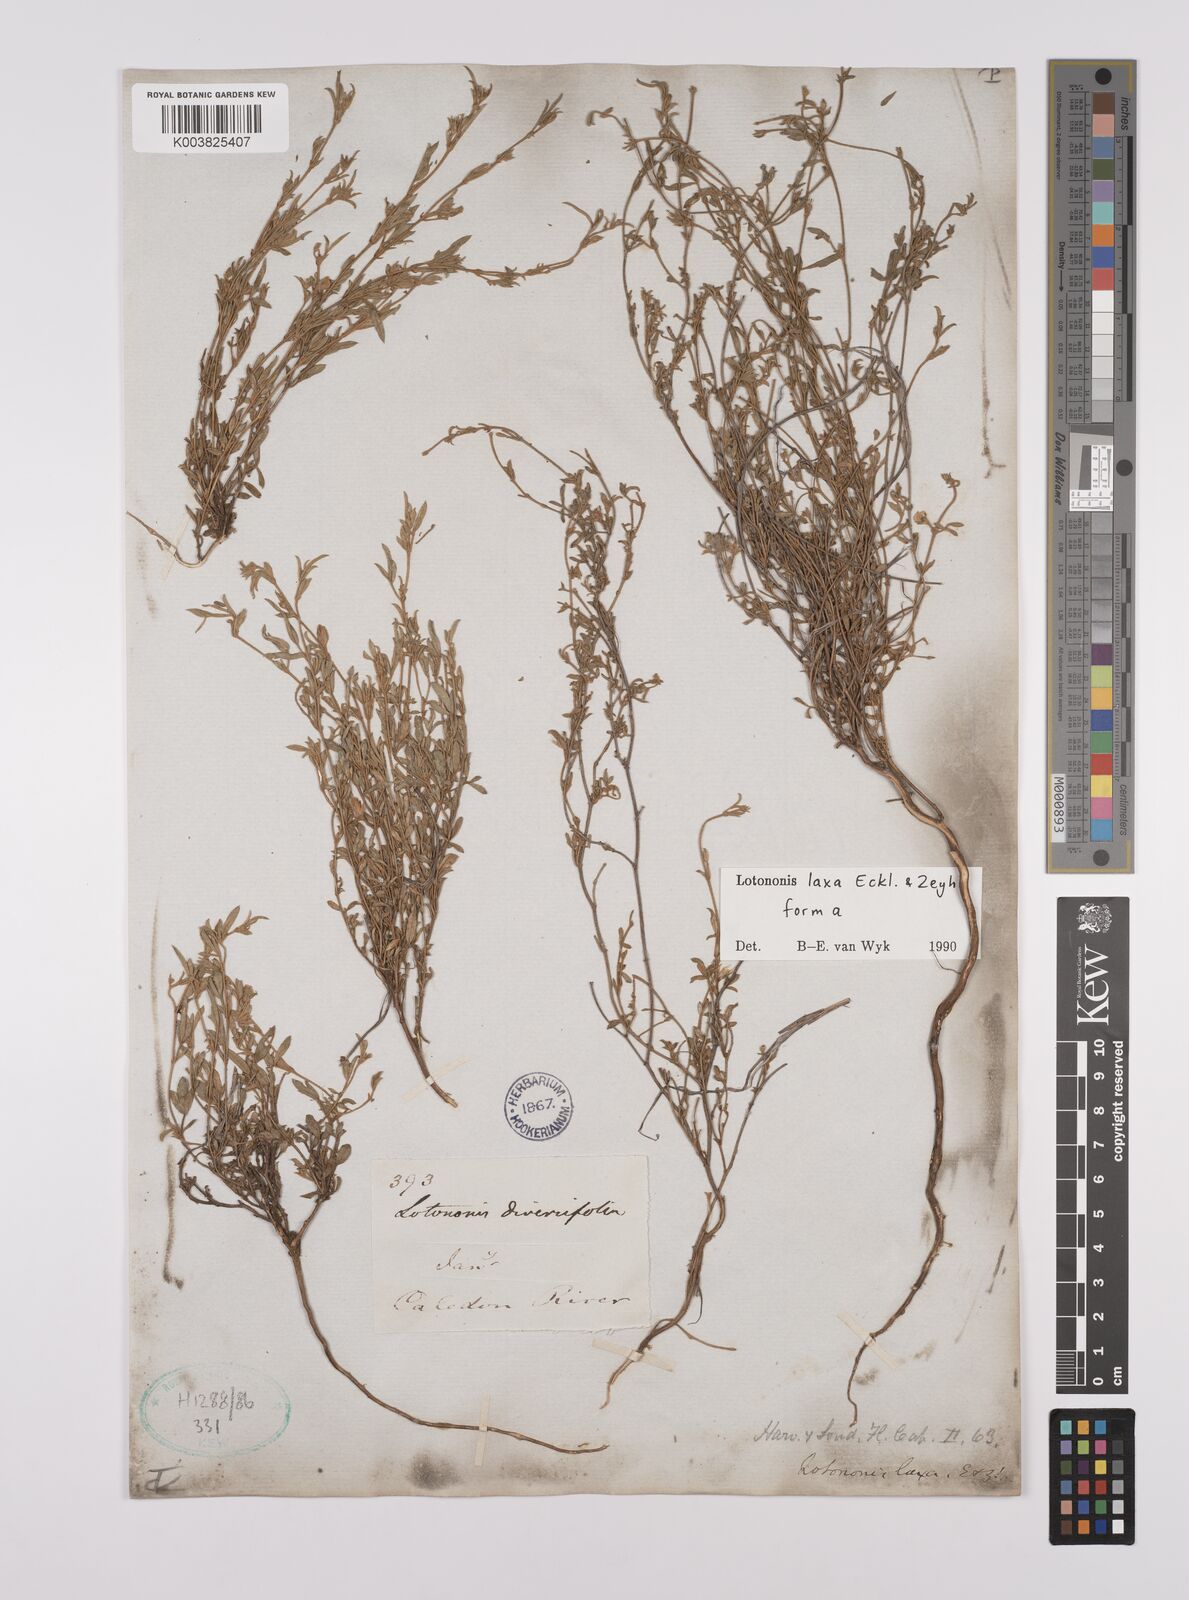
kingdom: Plantae
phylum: Tracheophyta
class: Magnoliopsida
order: Fabales
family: Fabaceae
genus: Lotononis
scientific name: Lotononis laxa
